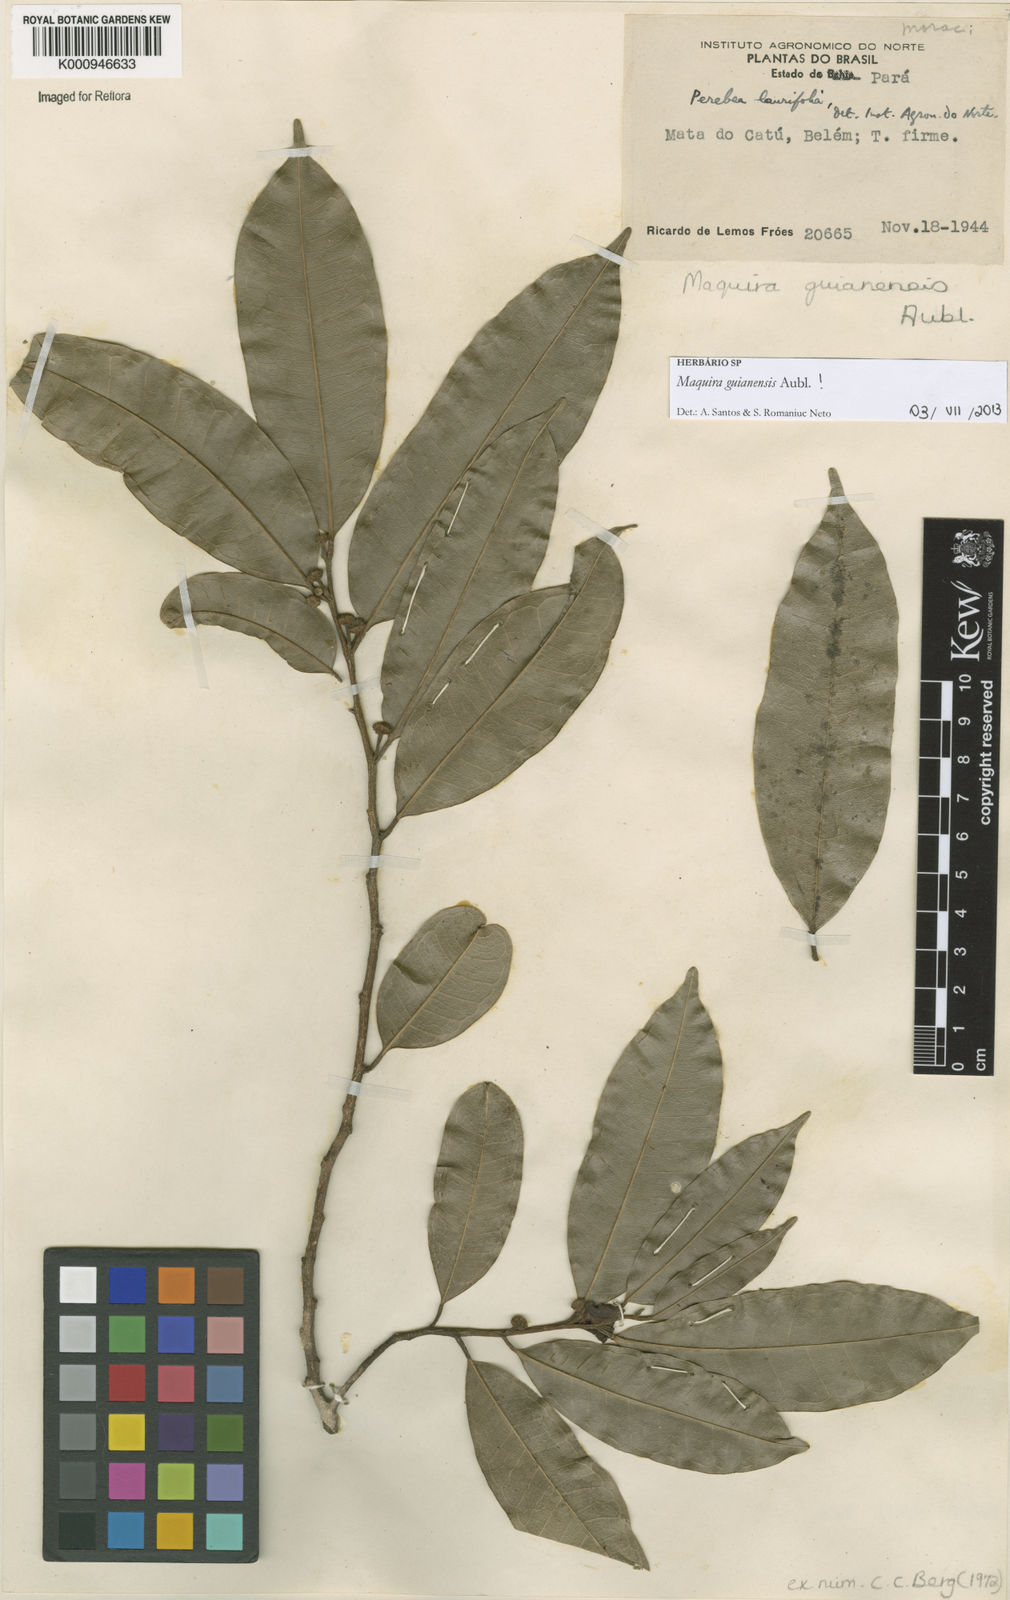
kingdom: Plantae
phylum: Tracheophyta
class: Magnoliopsida
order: Rosales
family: Moraceae
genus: Maquira
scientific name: Maquira guianensis
